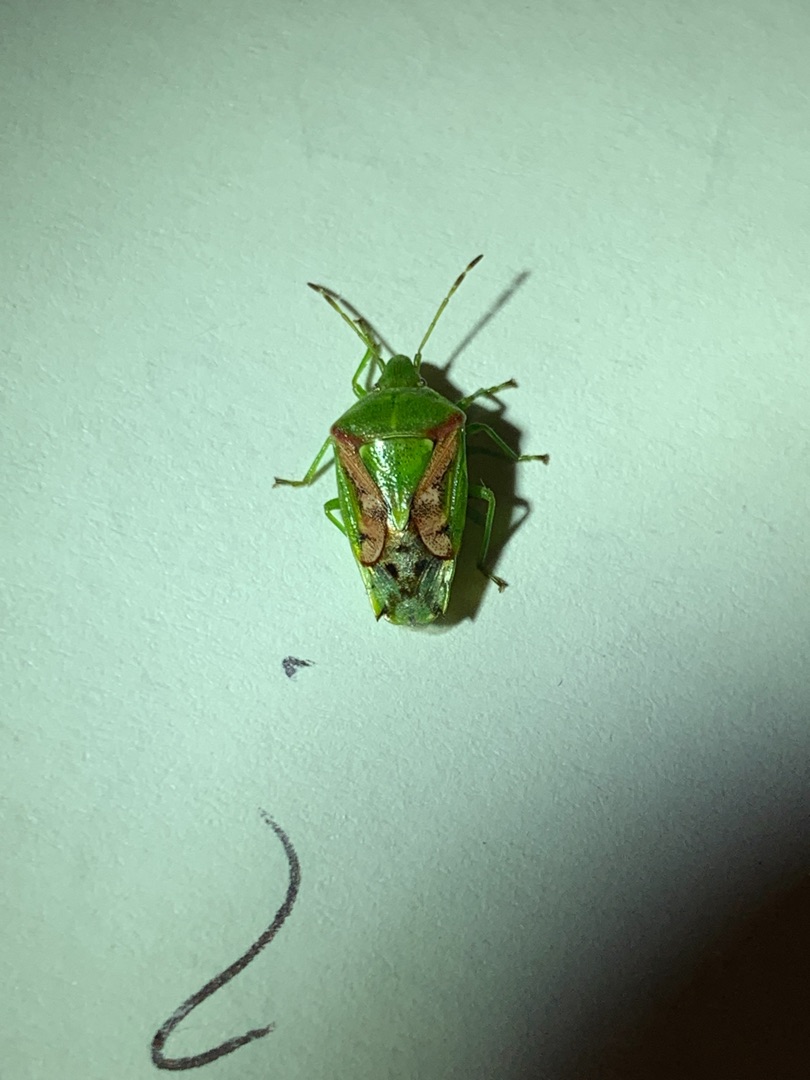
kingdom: Animalia
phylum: Arthropoda
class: Insecta
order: Hemiptera
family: Acanthosomatidae
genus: Cyphostethus
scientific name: Cyphostethus tristriatus
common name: Slank enebærtæge
